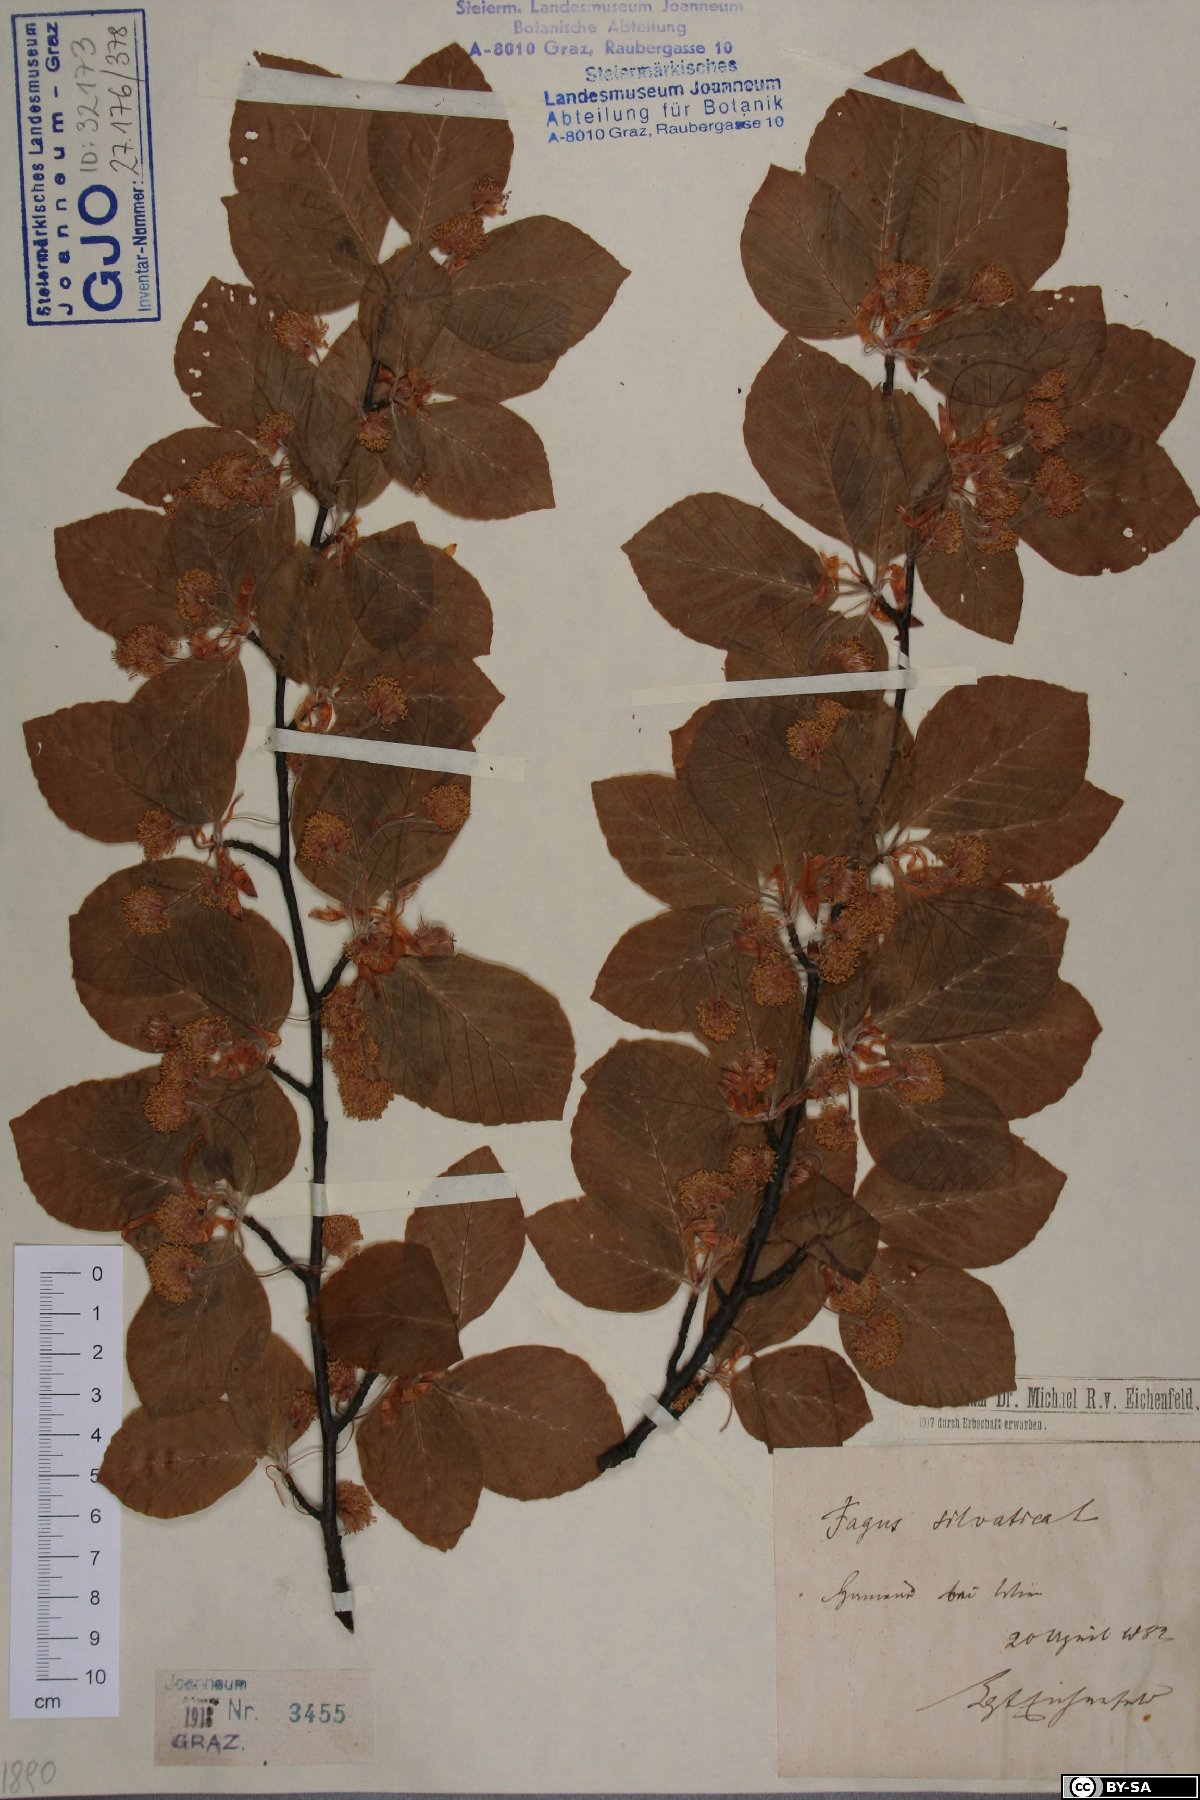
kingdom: Plantae
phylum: Tracheophyta
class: Magnoliopsida
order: Fagales
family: Fagaceae
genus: Fagus
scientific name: Fagus sylvatica
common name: Beech
